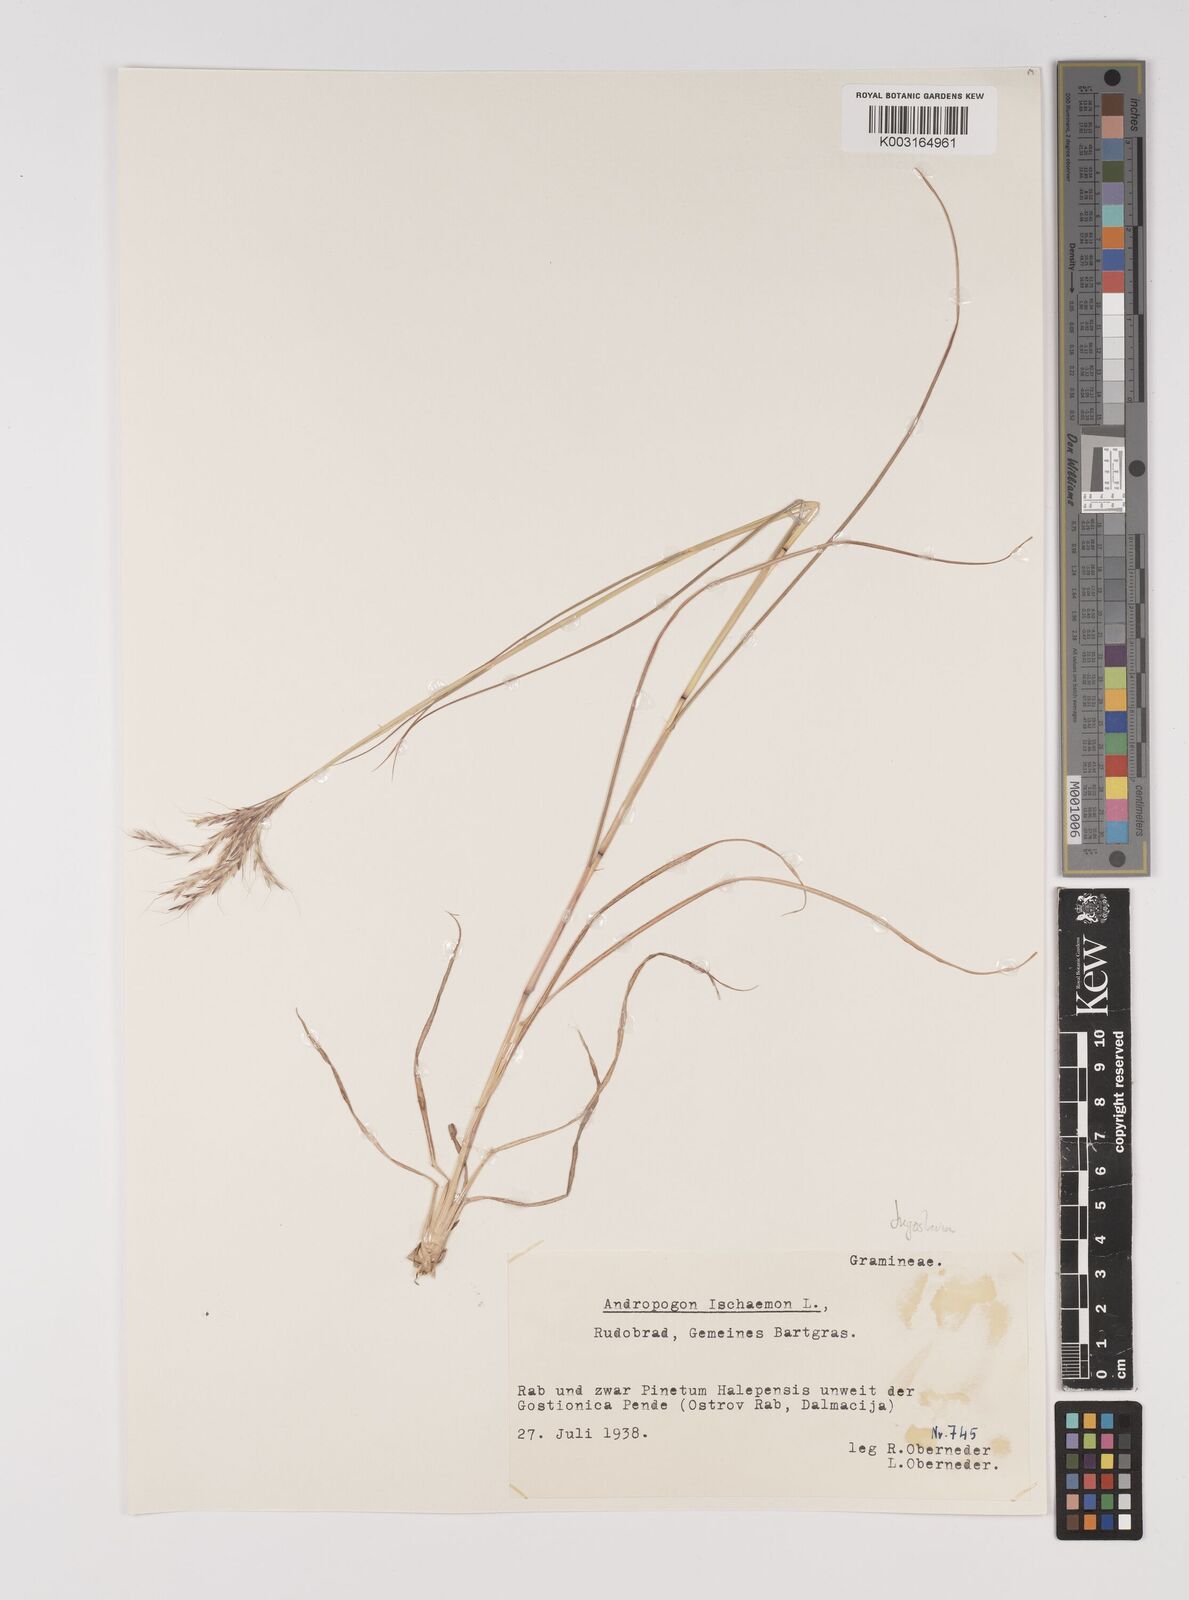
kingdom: Plantae
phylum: Tracheophyta
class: Liliopsida
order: Poales
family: Poaceae
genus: Bothriochloa
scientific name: Bothriochloa ischaemum
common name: Yellow bluestem
